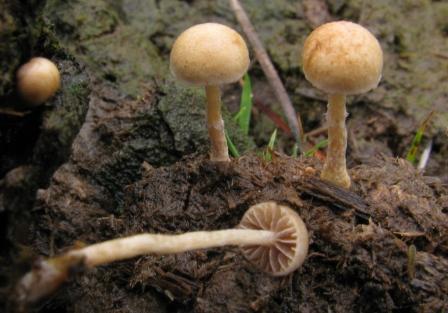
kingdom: Fungi
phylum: Basidiomycota
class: Agaricomycetes
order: Agaricales
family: Strophariaceae
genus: Deconica
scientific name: Deconica coprophila
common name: gødnings-stråhat
